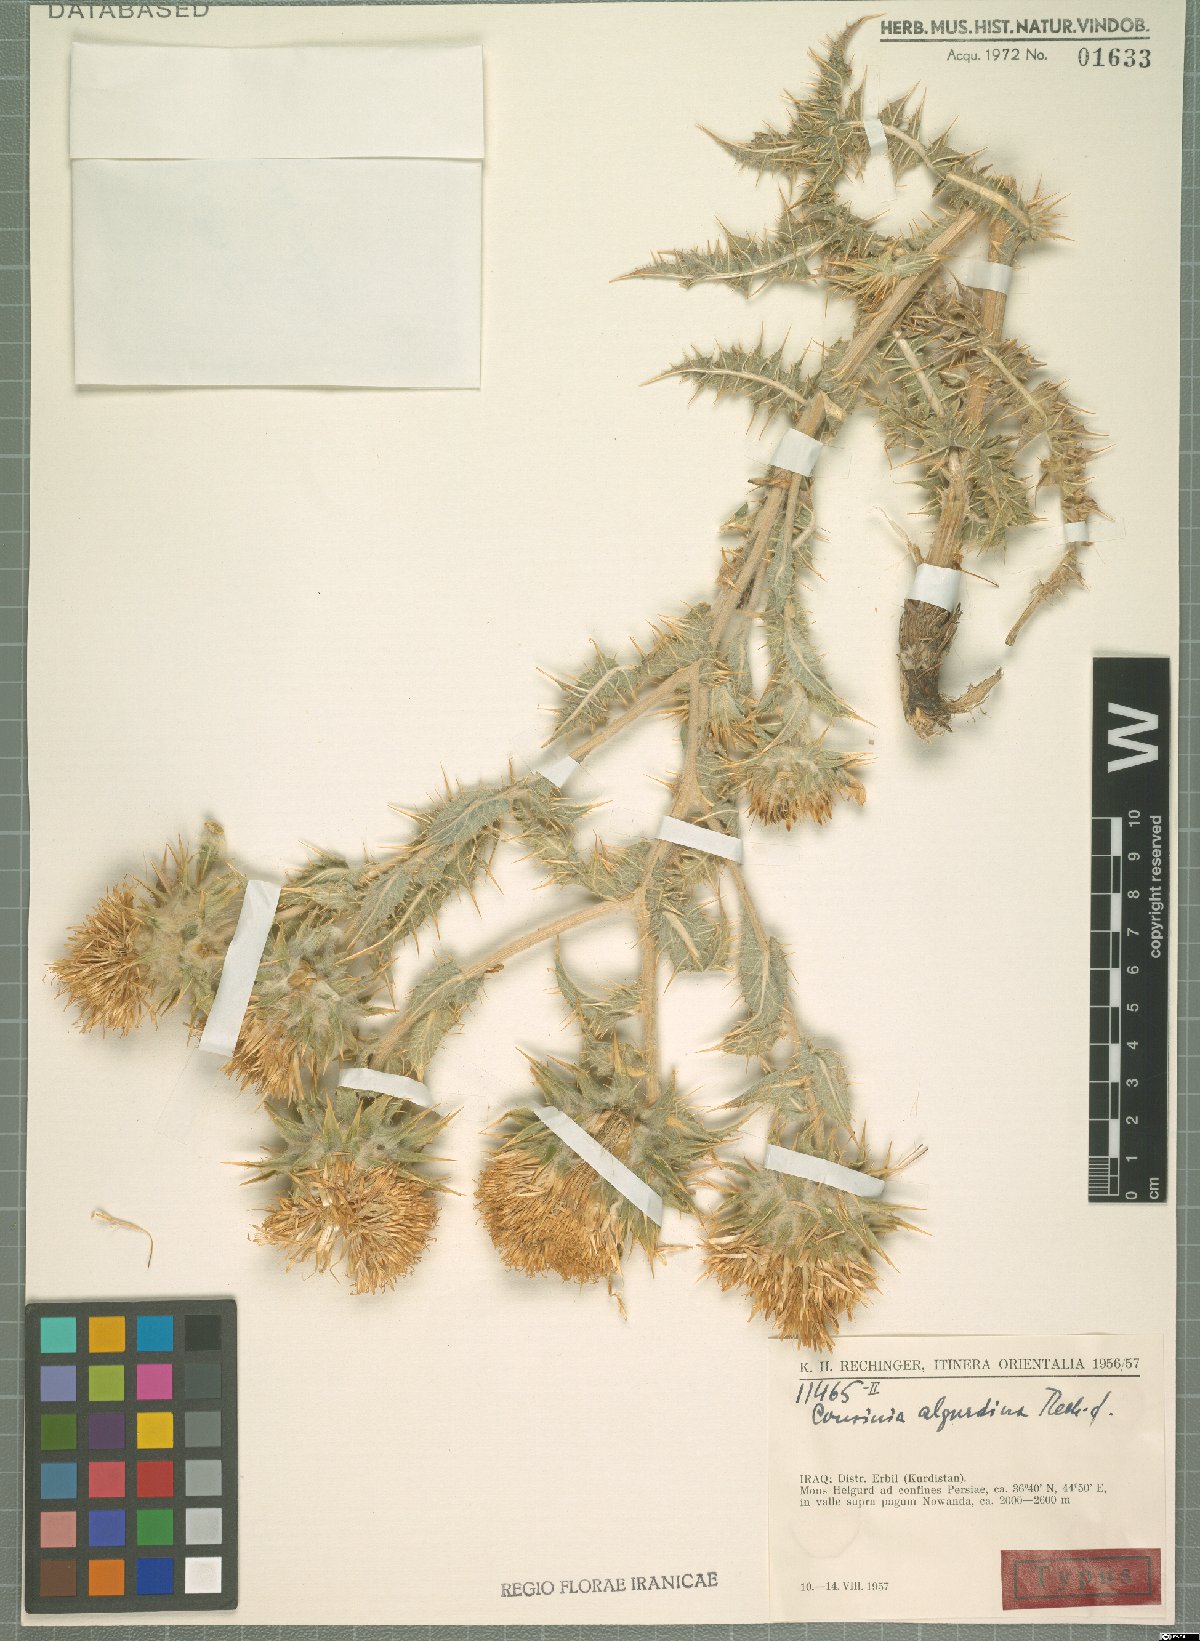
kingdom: Plantae
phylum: Tracheophyta
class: Magnoliopsida
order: Asterales
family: Asteraceae
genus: Cousinia
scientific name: Cousinia algurdina
